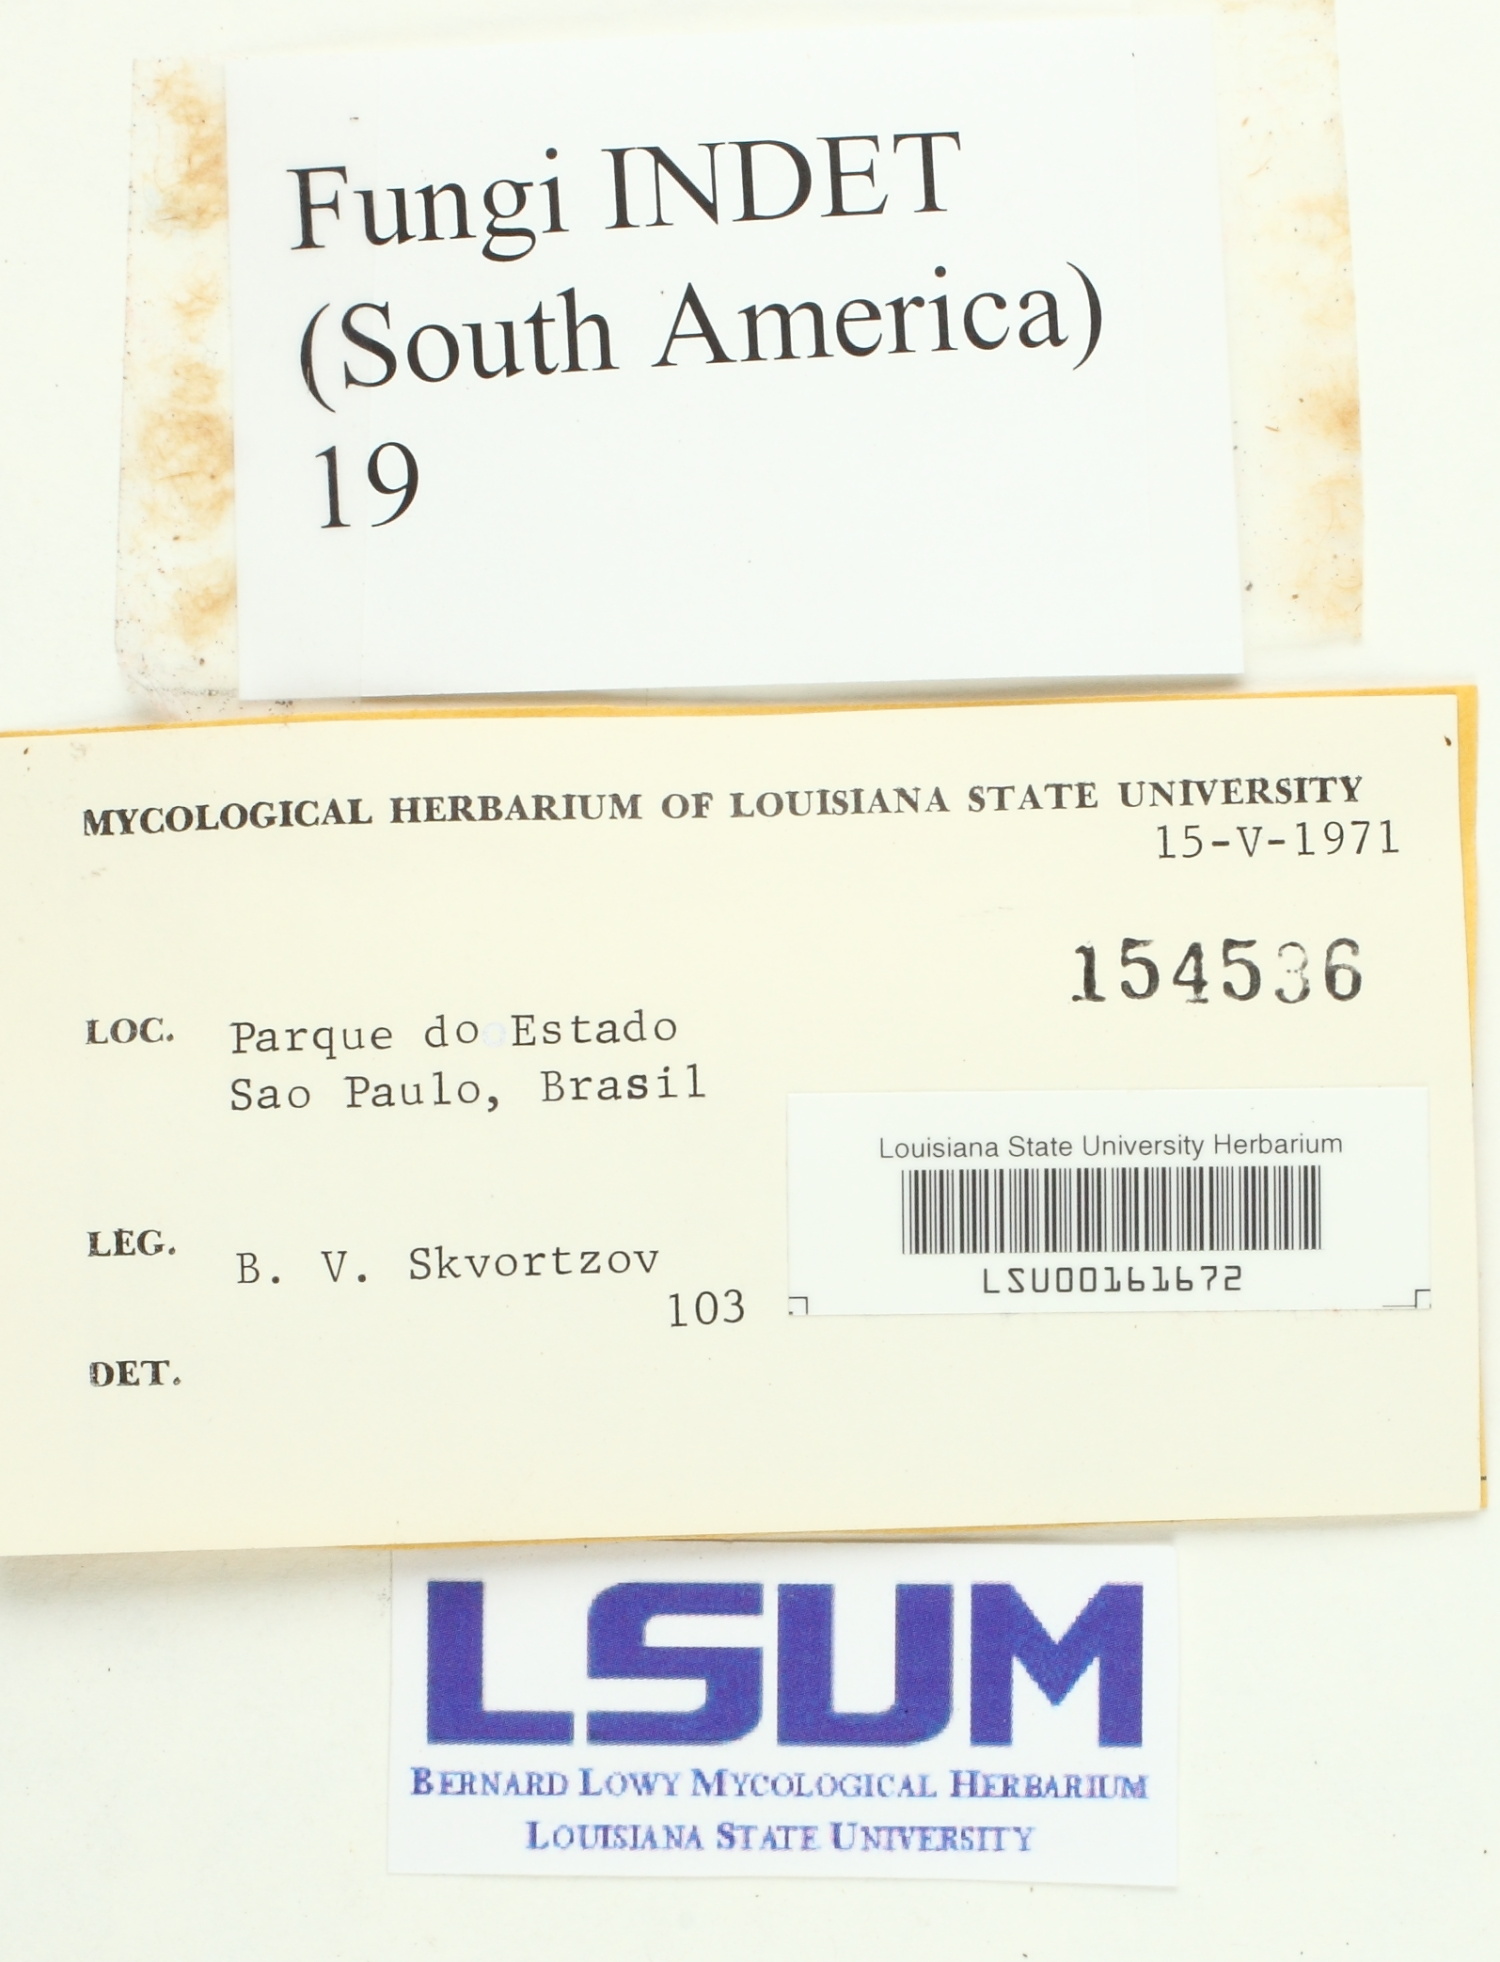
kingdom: Fungi
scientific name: Fungi
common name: Fungi
